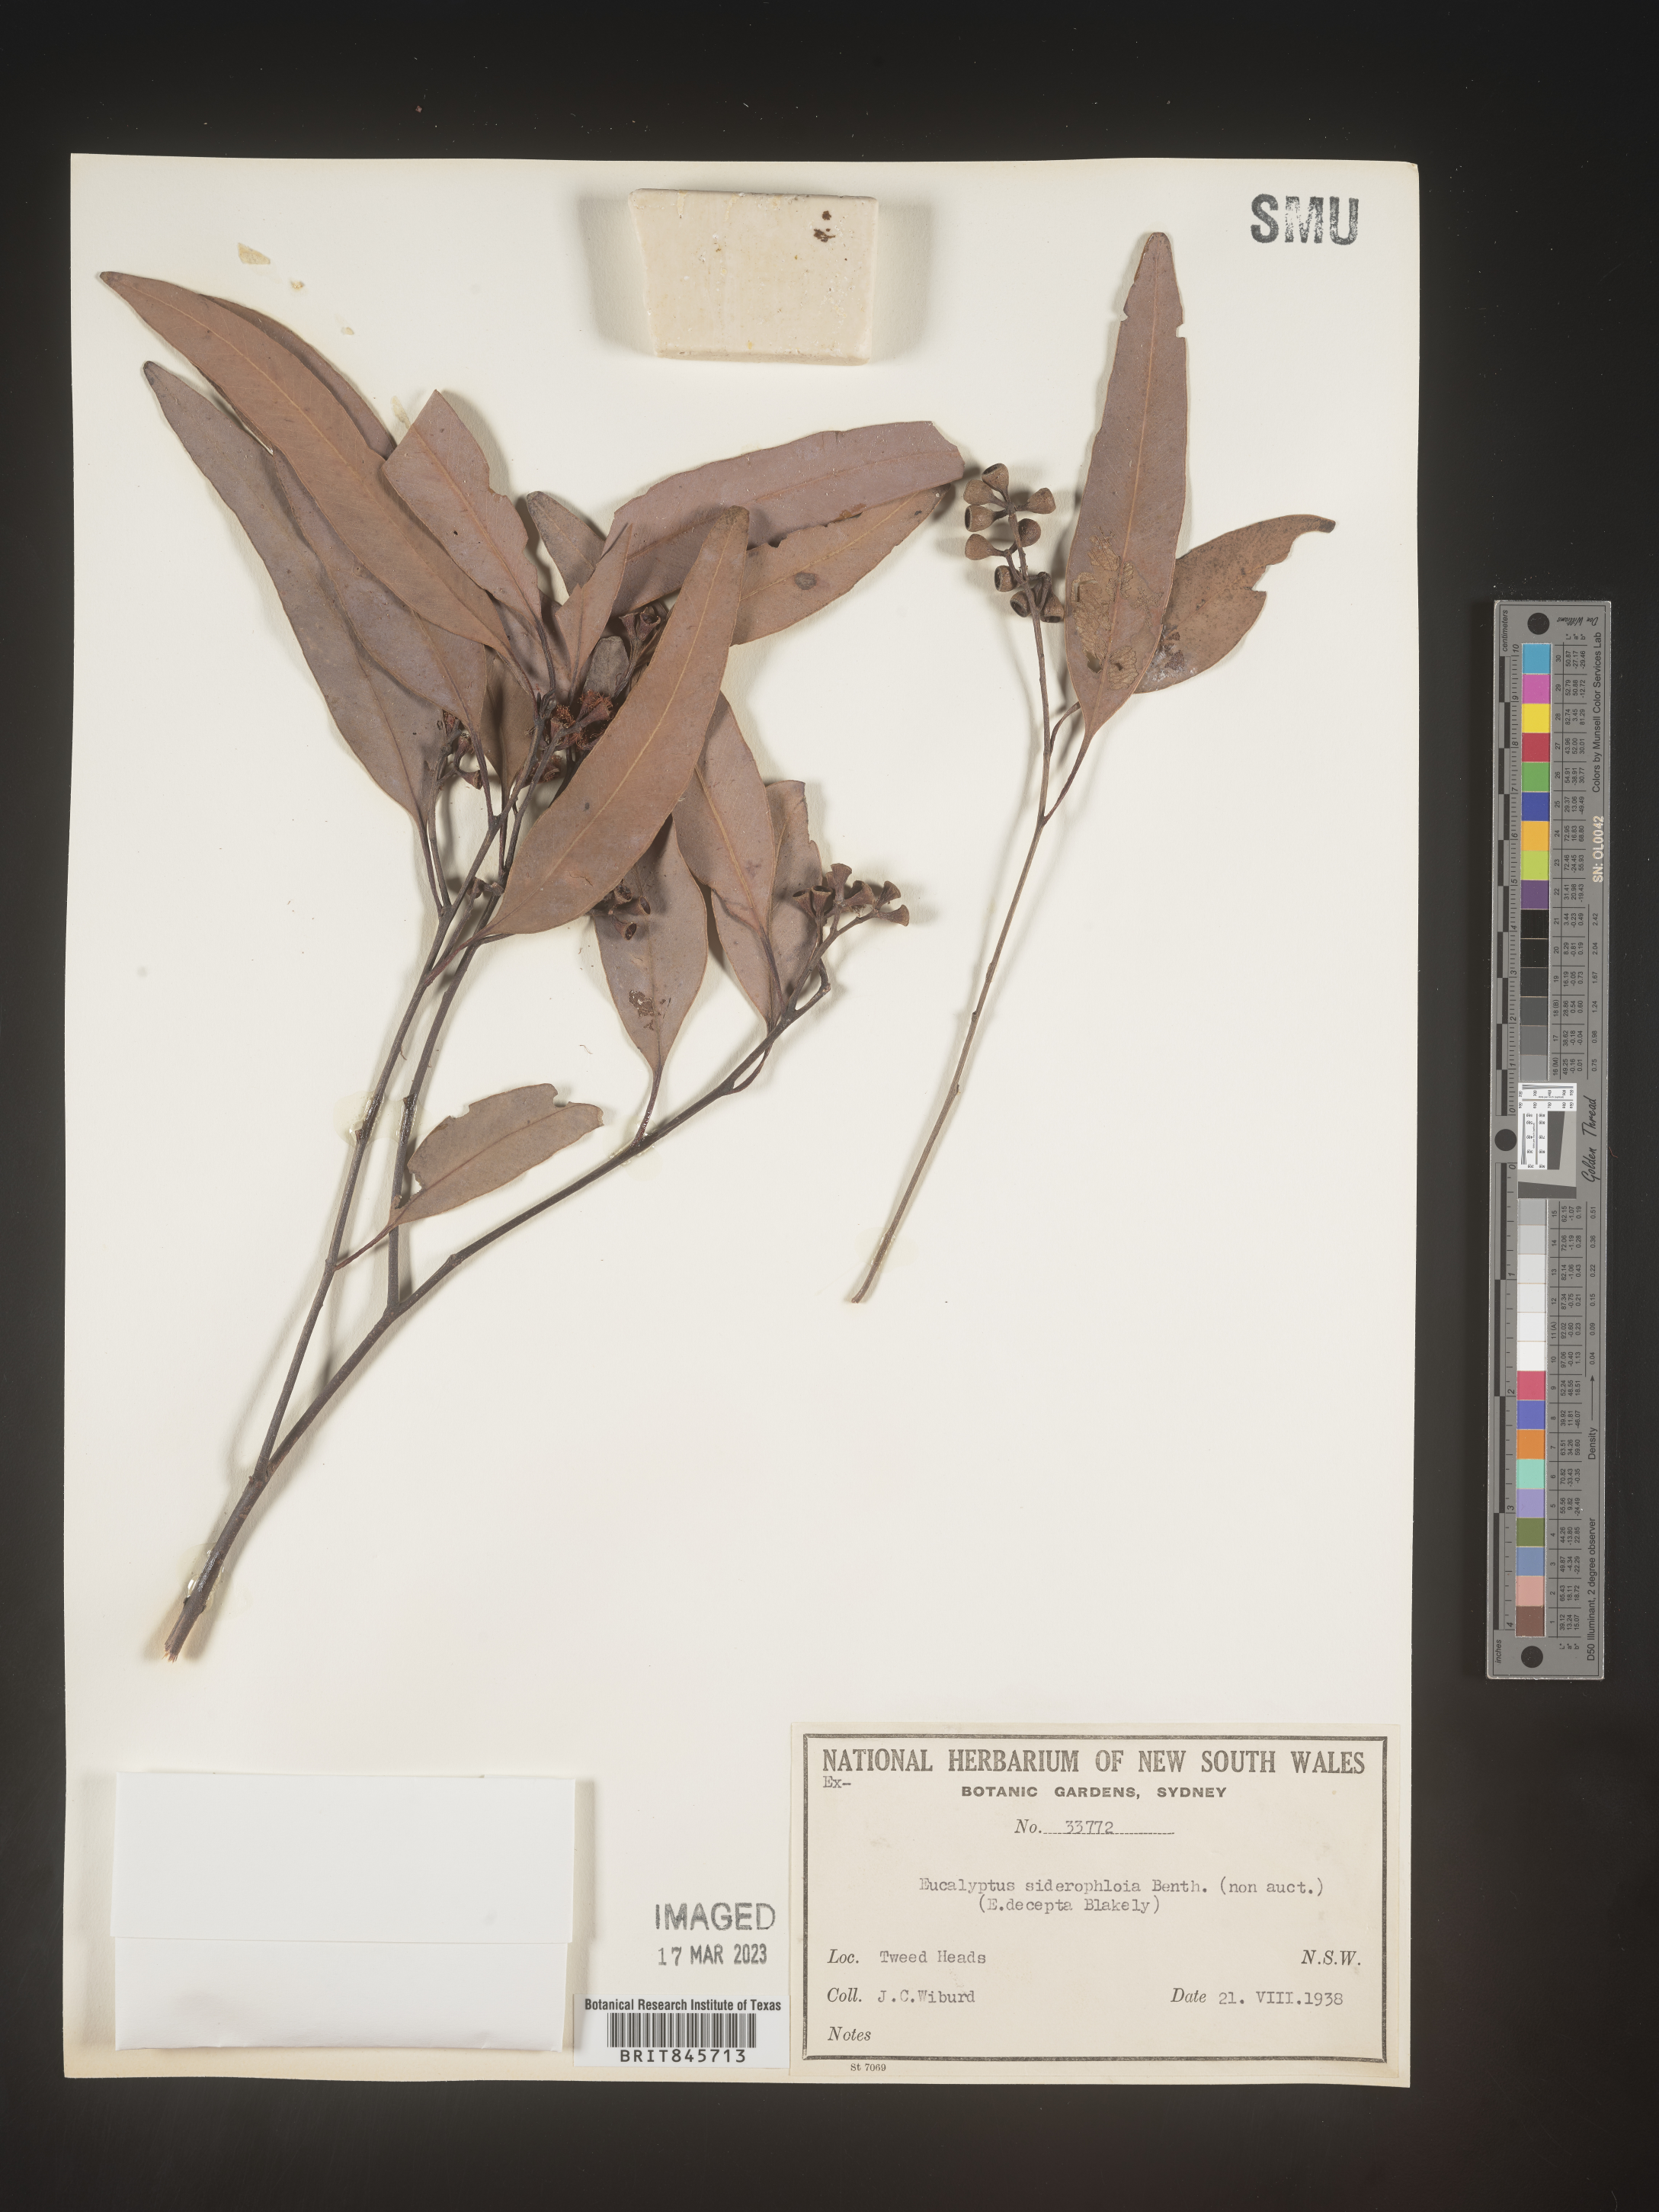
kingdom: Plantae
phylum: Tracheophyta
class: Magnoliopsida
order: Myrtales
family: Myrtaceae
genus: Eucalyptus
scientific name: Eucalyptus
